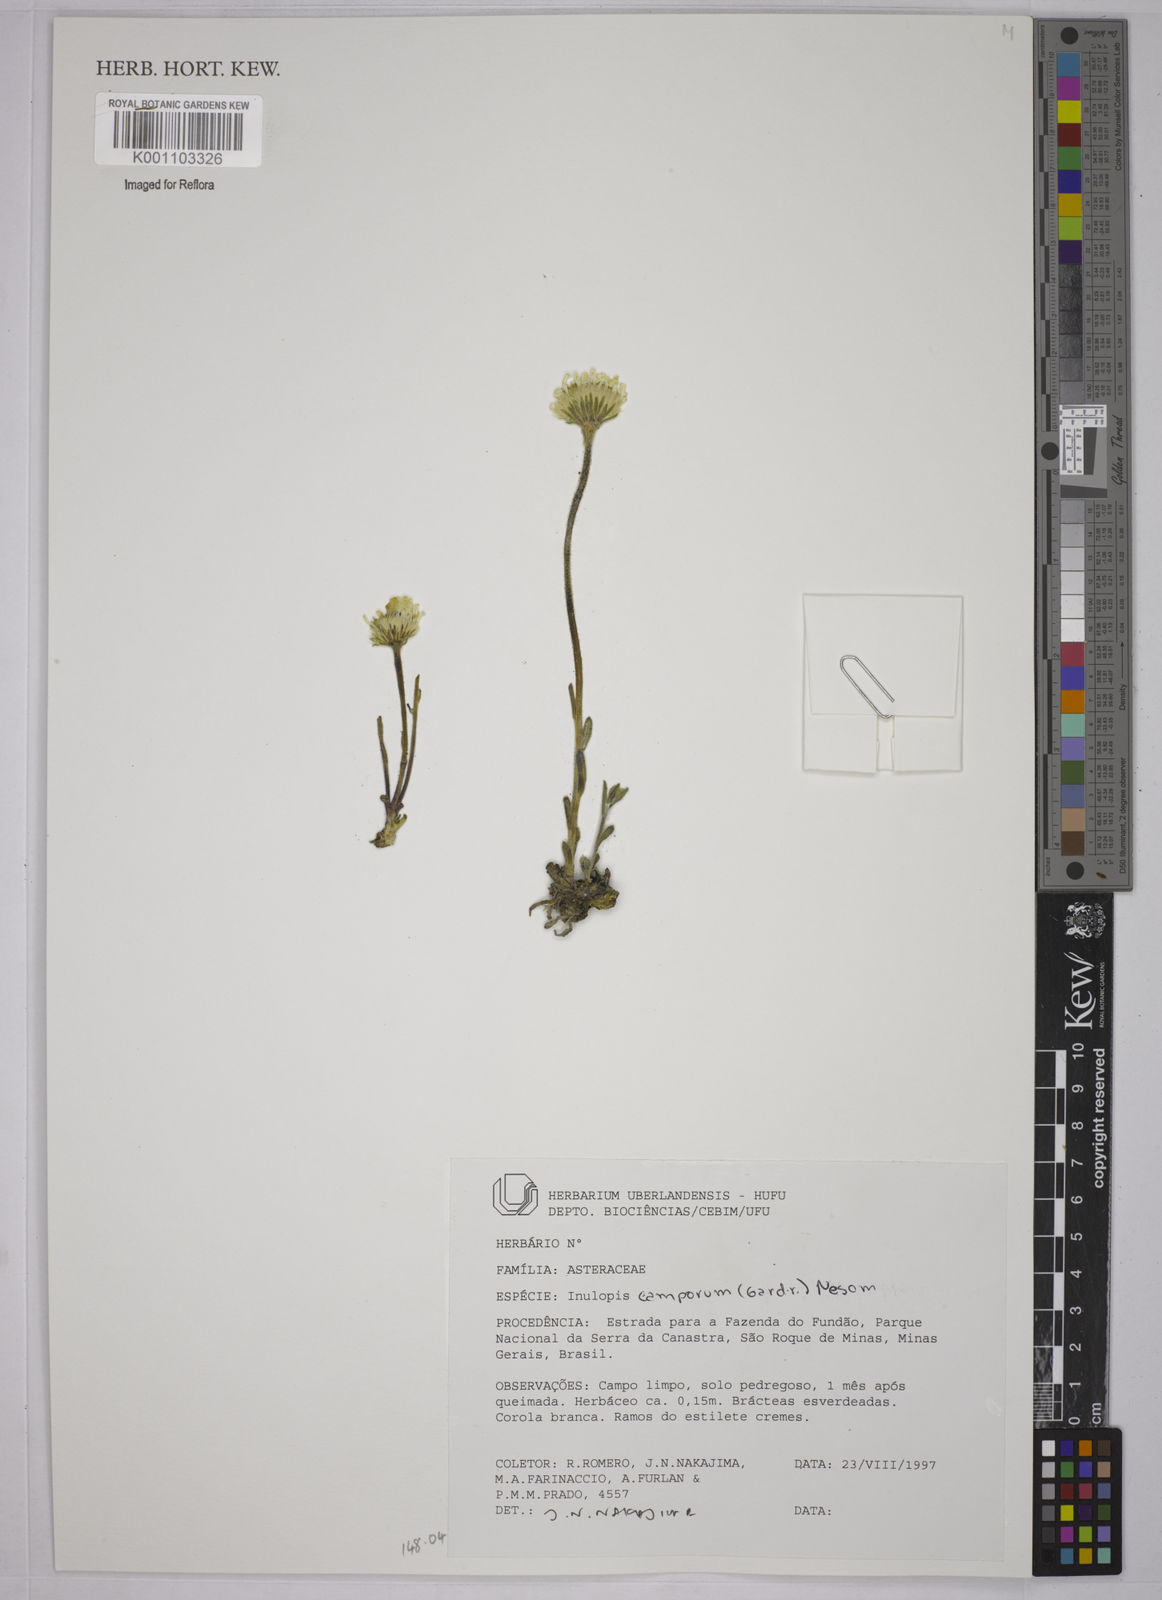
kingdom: Plantae
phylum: Tracheophyta
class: Magnoliopsida
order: Asterales
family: Asteraceae
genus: Inulopsis
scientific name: Inulopsis camporum
